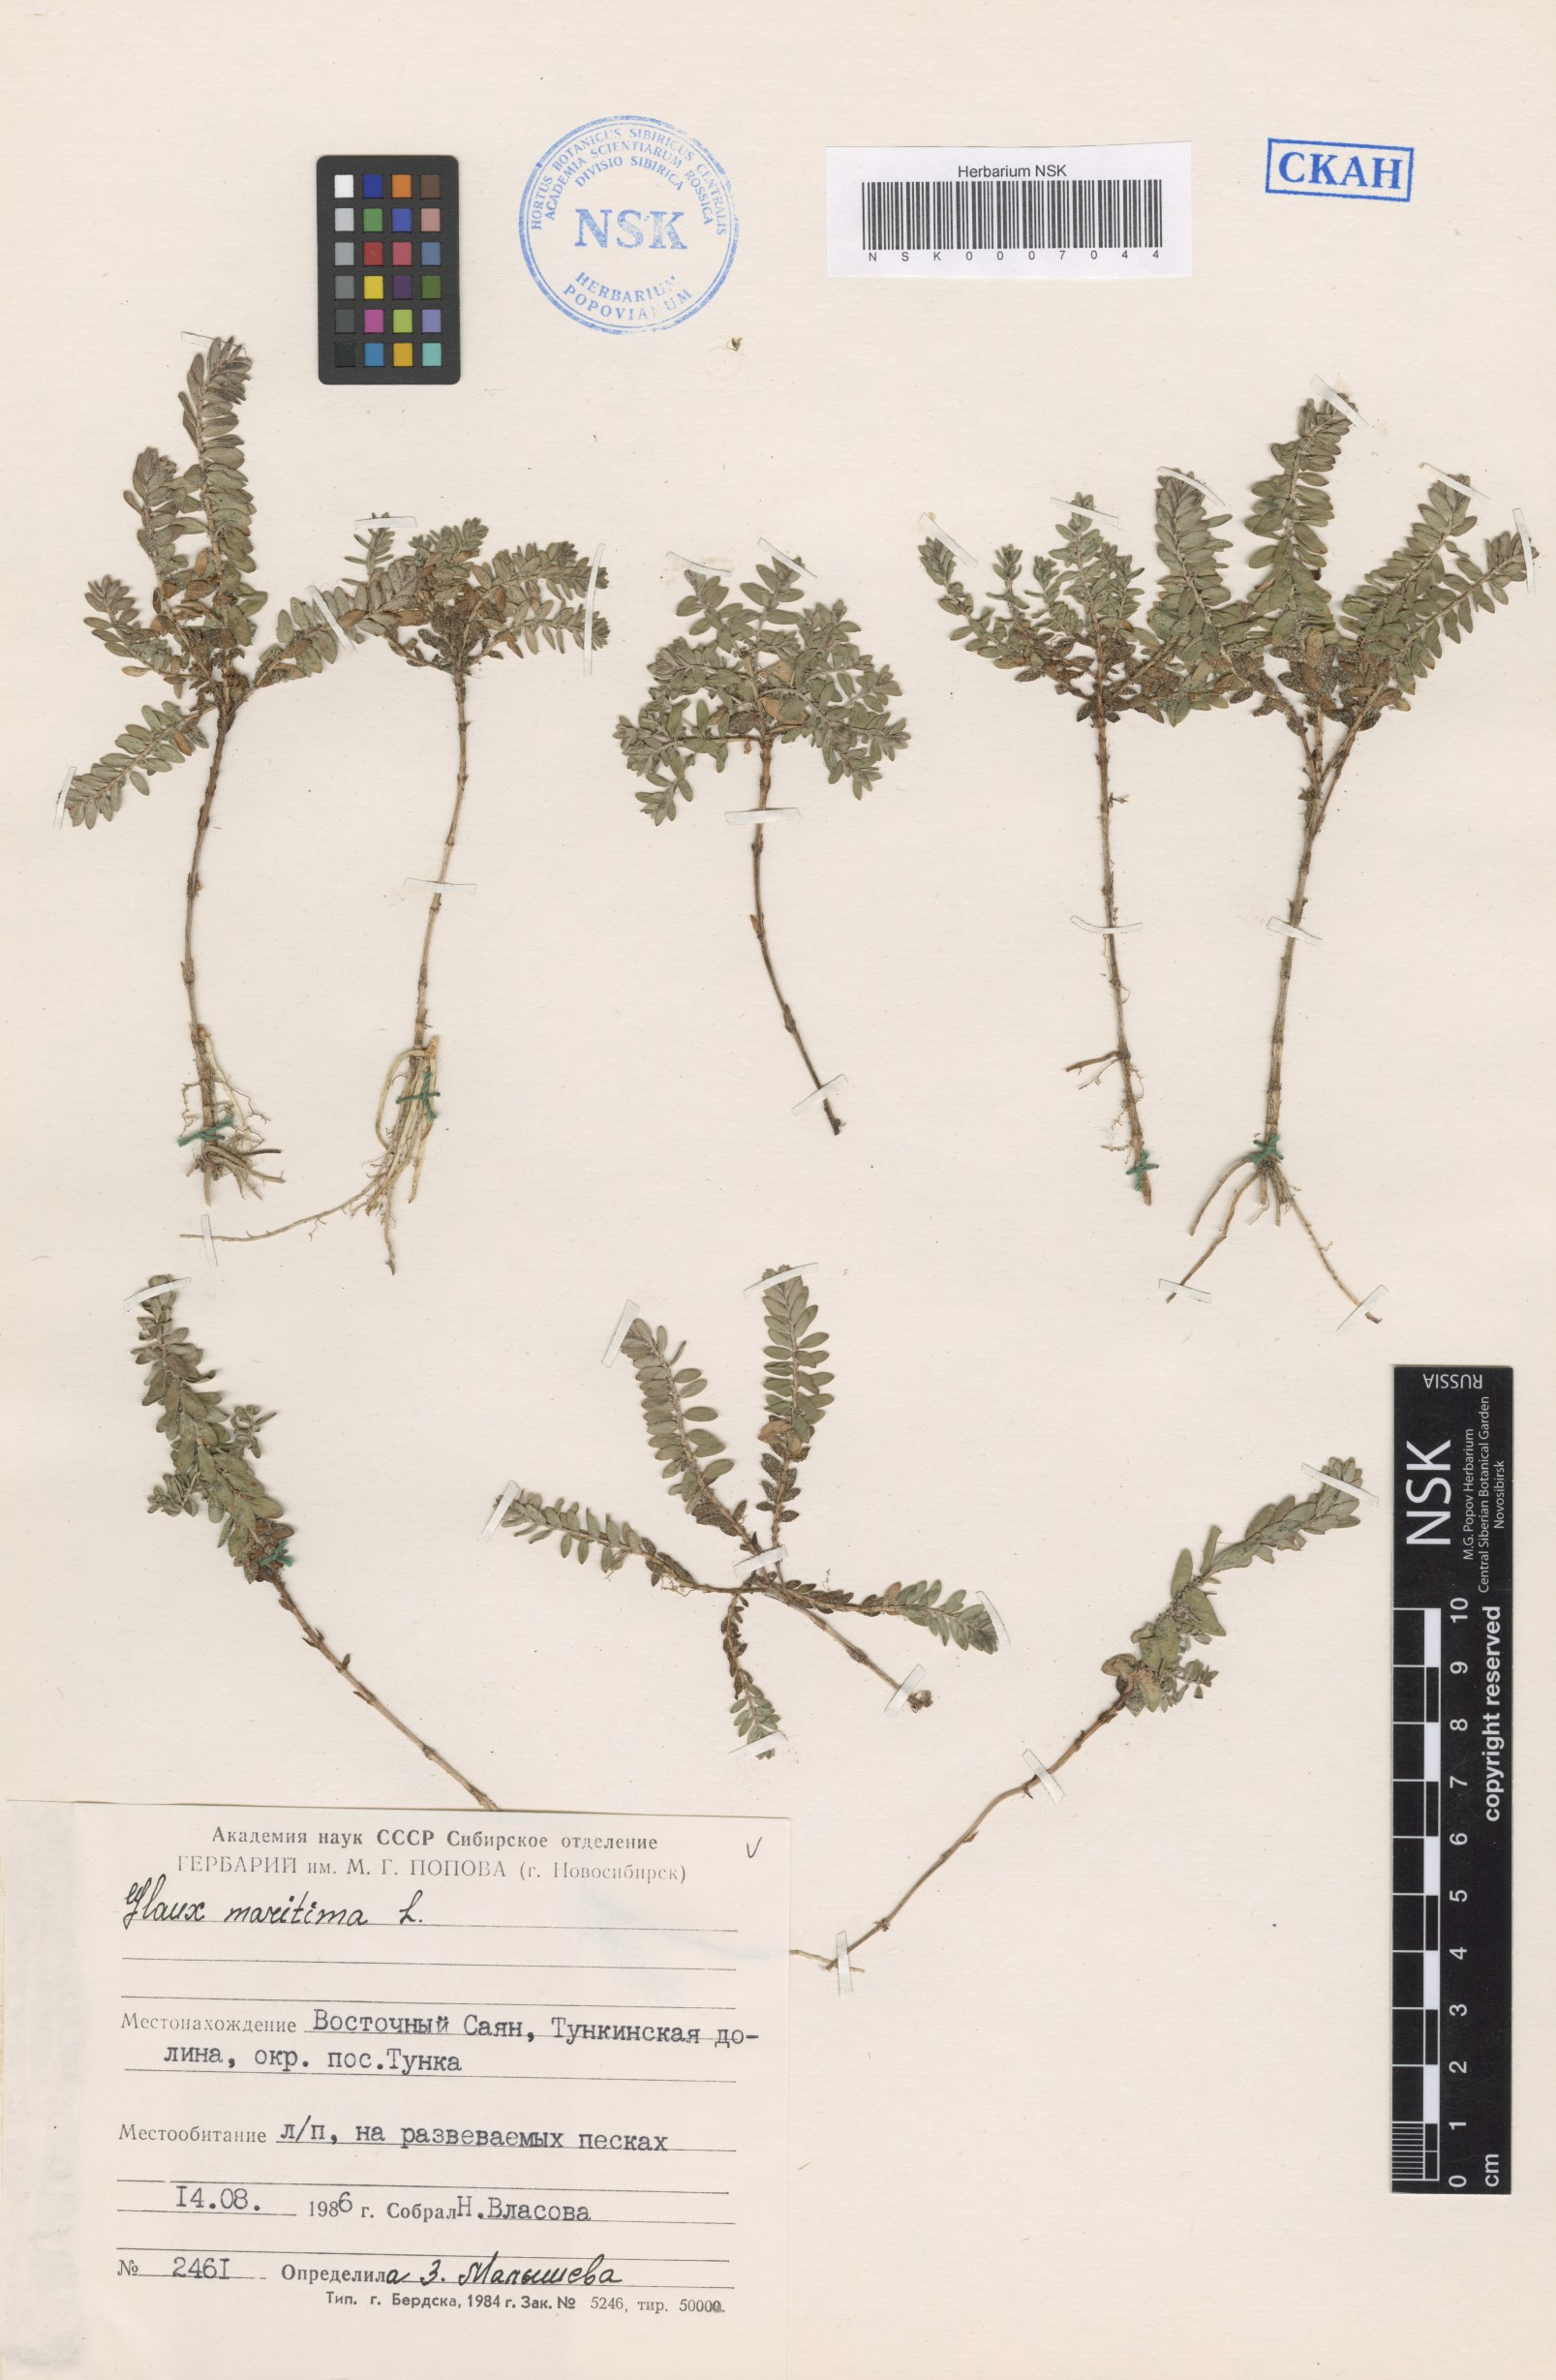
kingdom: Plantae
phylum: Tracheophyta
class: Magnoliopsida
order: Ericales
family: Primulaceae
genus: Lysimachia
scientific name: Lysimachia maritima
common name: Sea milkwort
